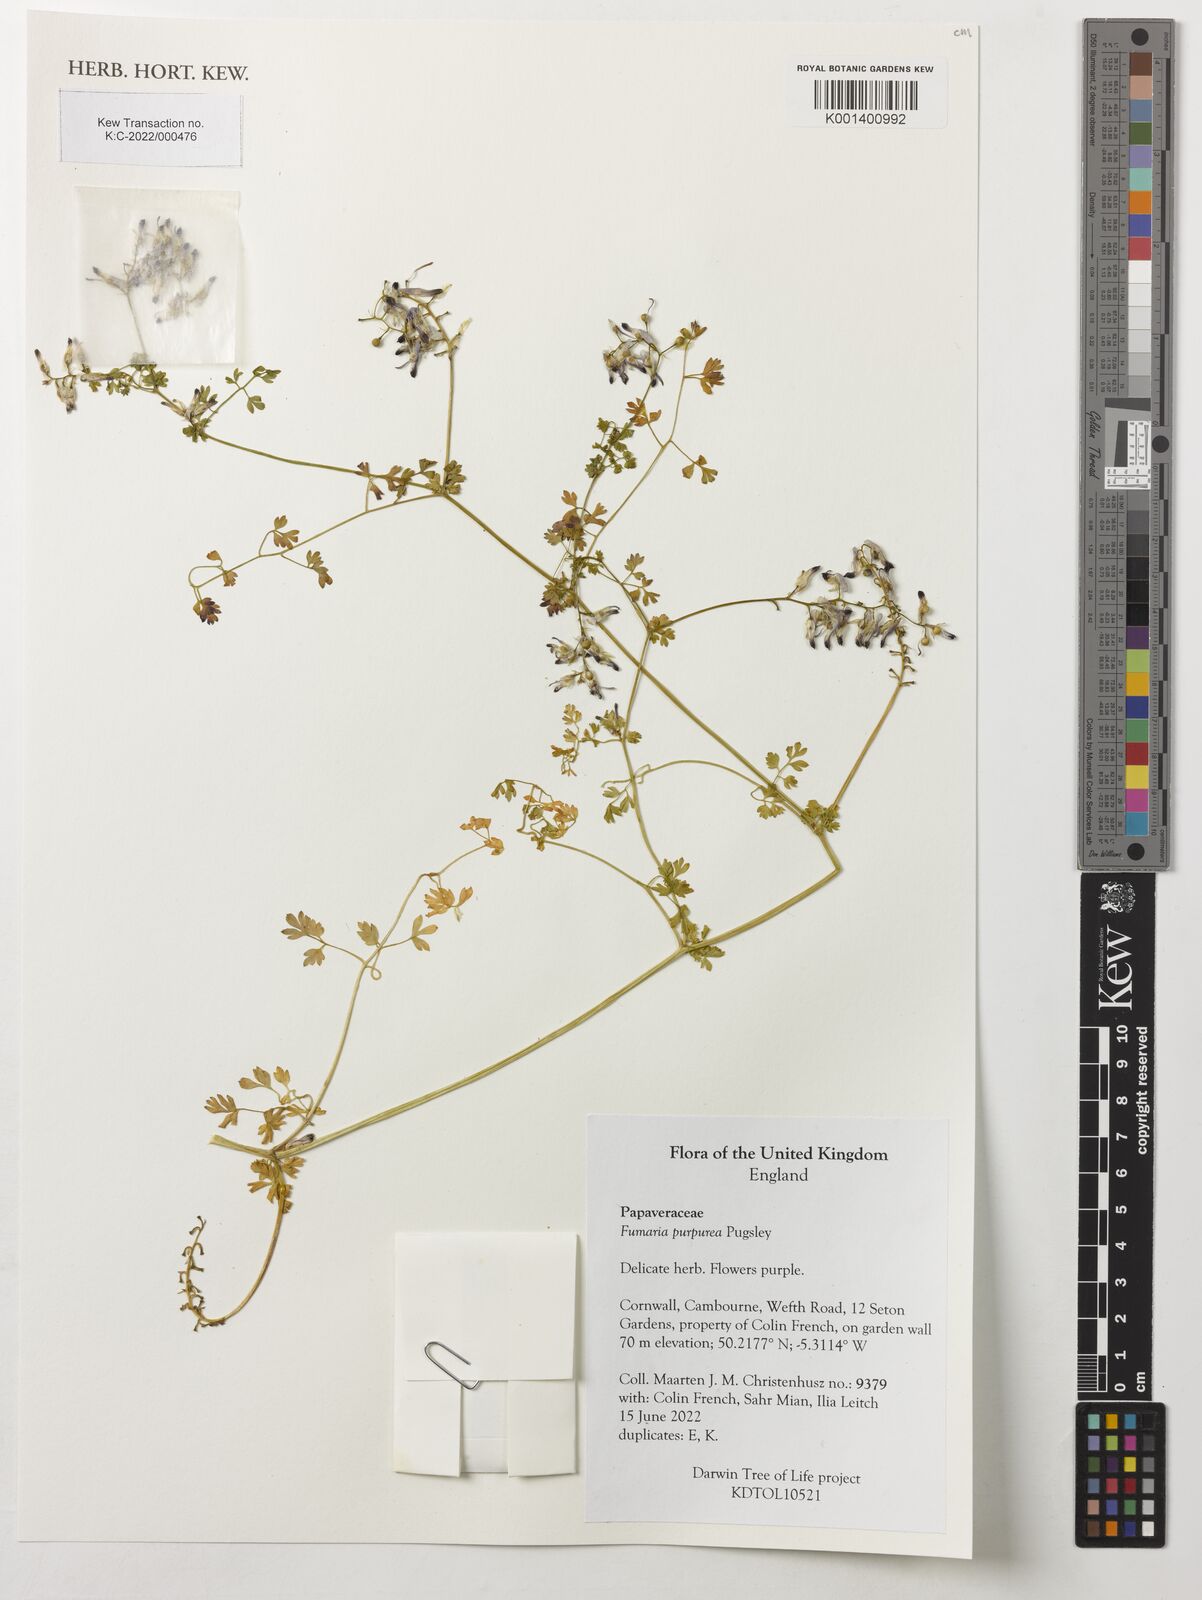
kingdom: Plantae
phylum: Tracheophyta
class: Magnoliopsida
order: Ranunculales
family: Papaveraceae
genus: Fumaria
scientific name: Fumaria purpurea
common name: Purple ramping-fumitory
